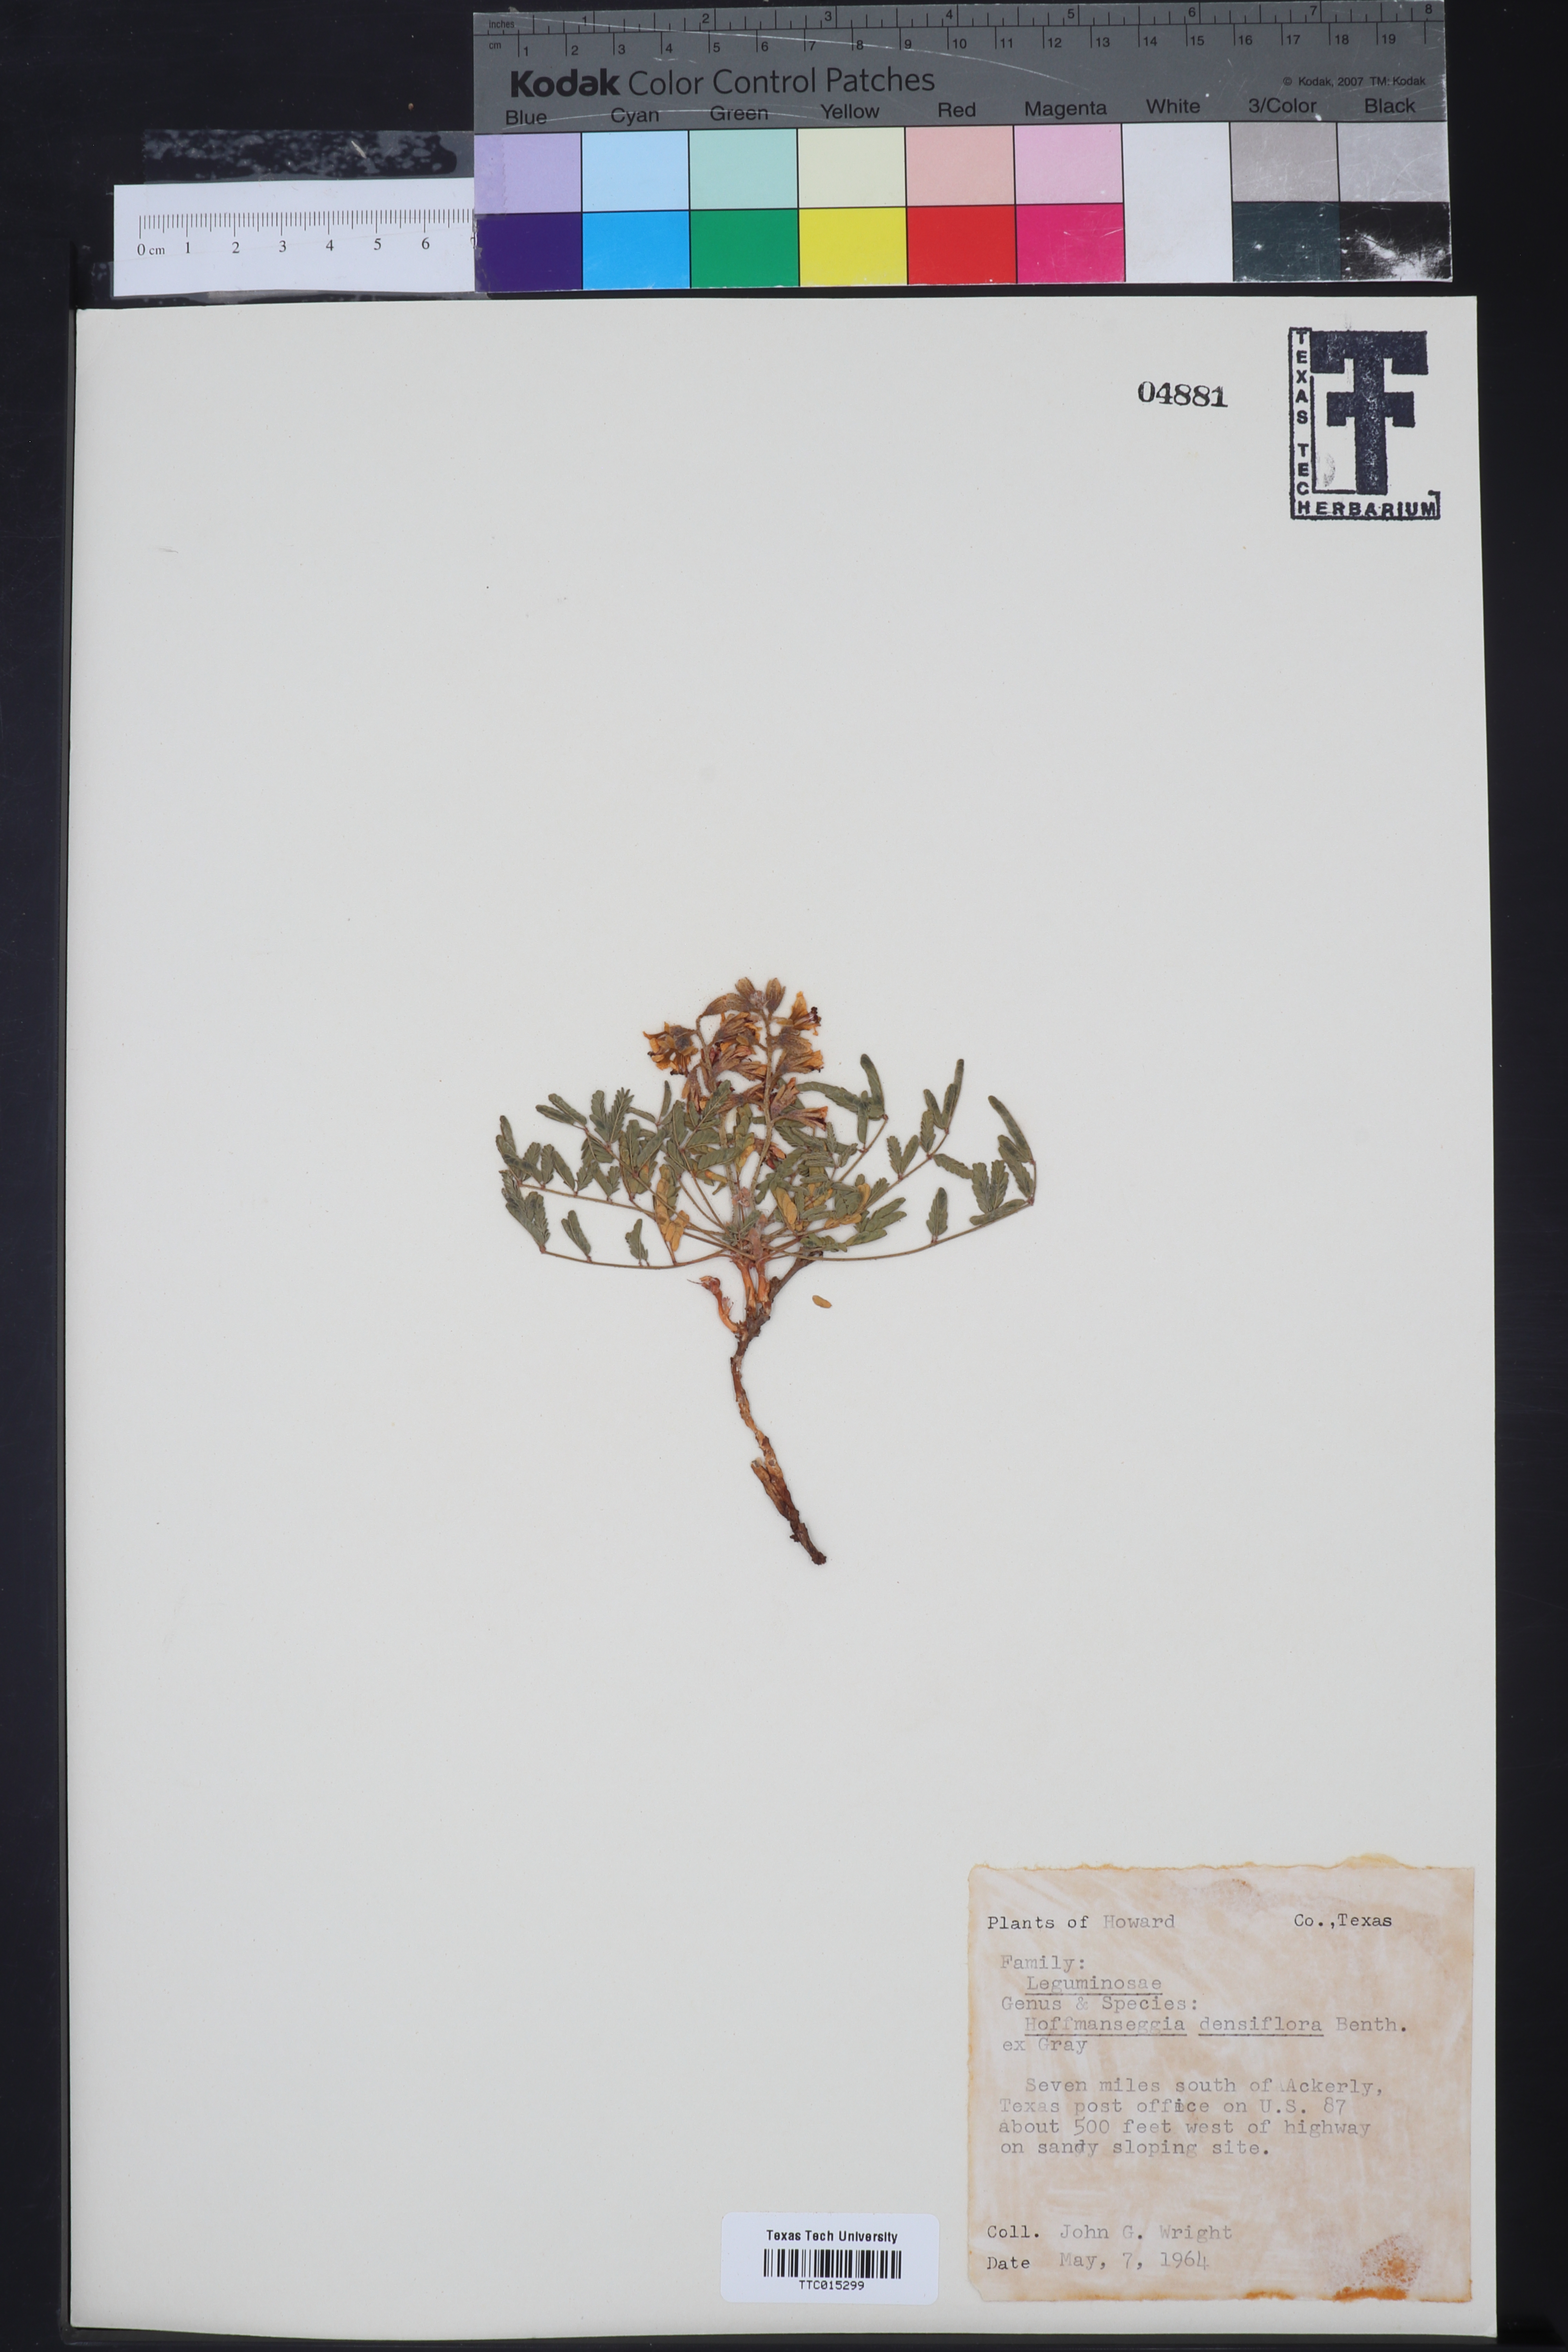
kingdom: Plantae
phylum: Tracheophyta
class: Magnoliopsida
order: Fabales
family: Fabaceae
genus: Hoffmannseggia
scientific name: Hoffmannseggia glauca
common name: Pignut
